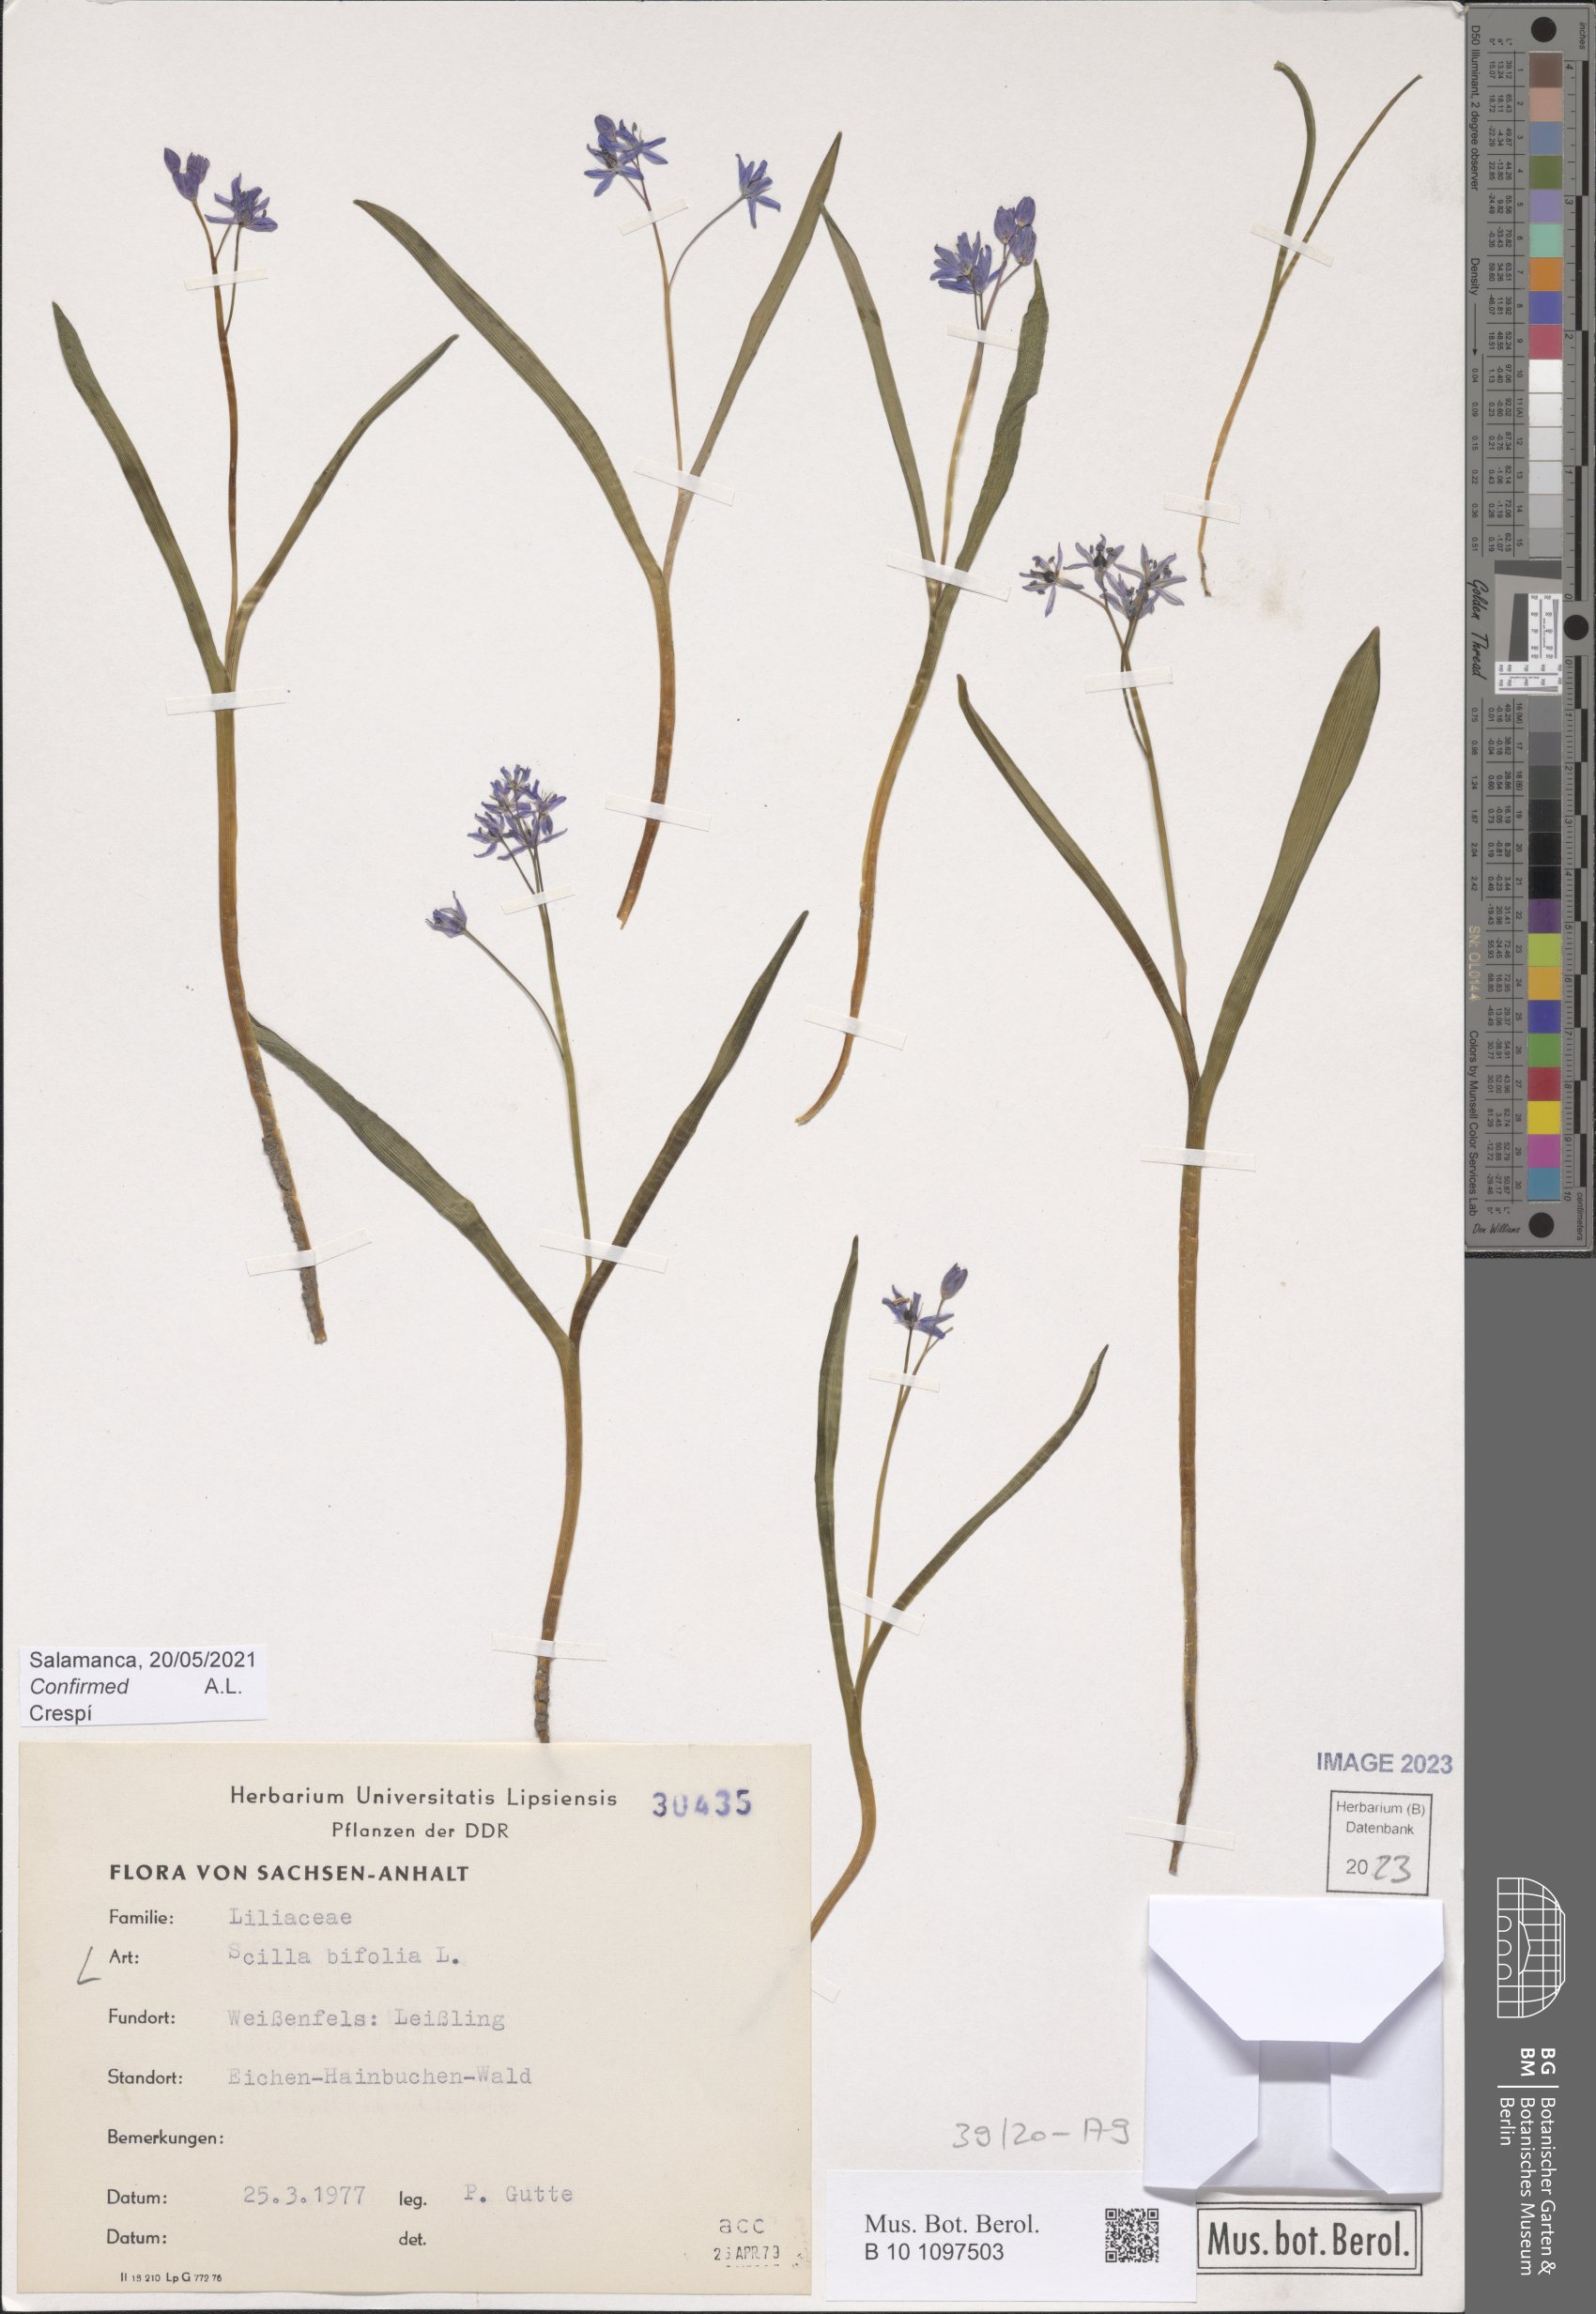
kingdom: Plantae
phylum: Tracheophyta
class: Liliopsida
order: Asparagales
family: Asparagaceae
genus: Scilla
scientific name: Scilla bifolia
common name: Alpine squill
